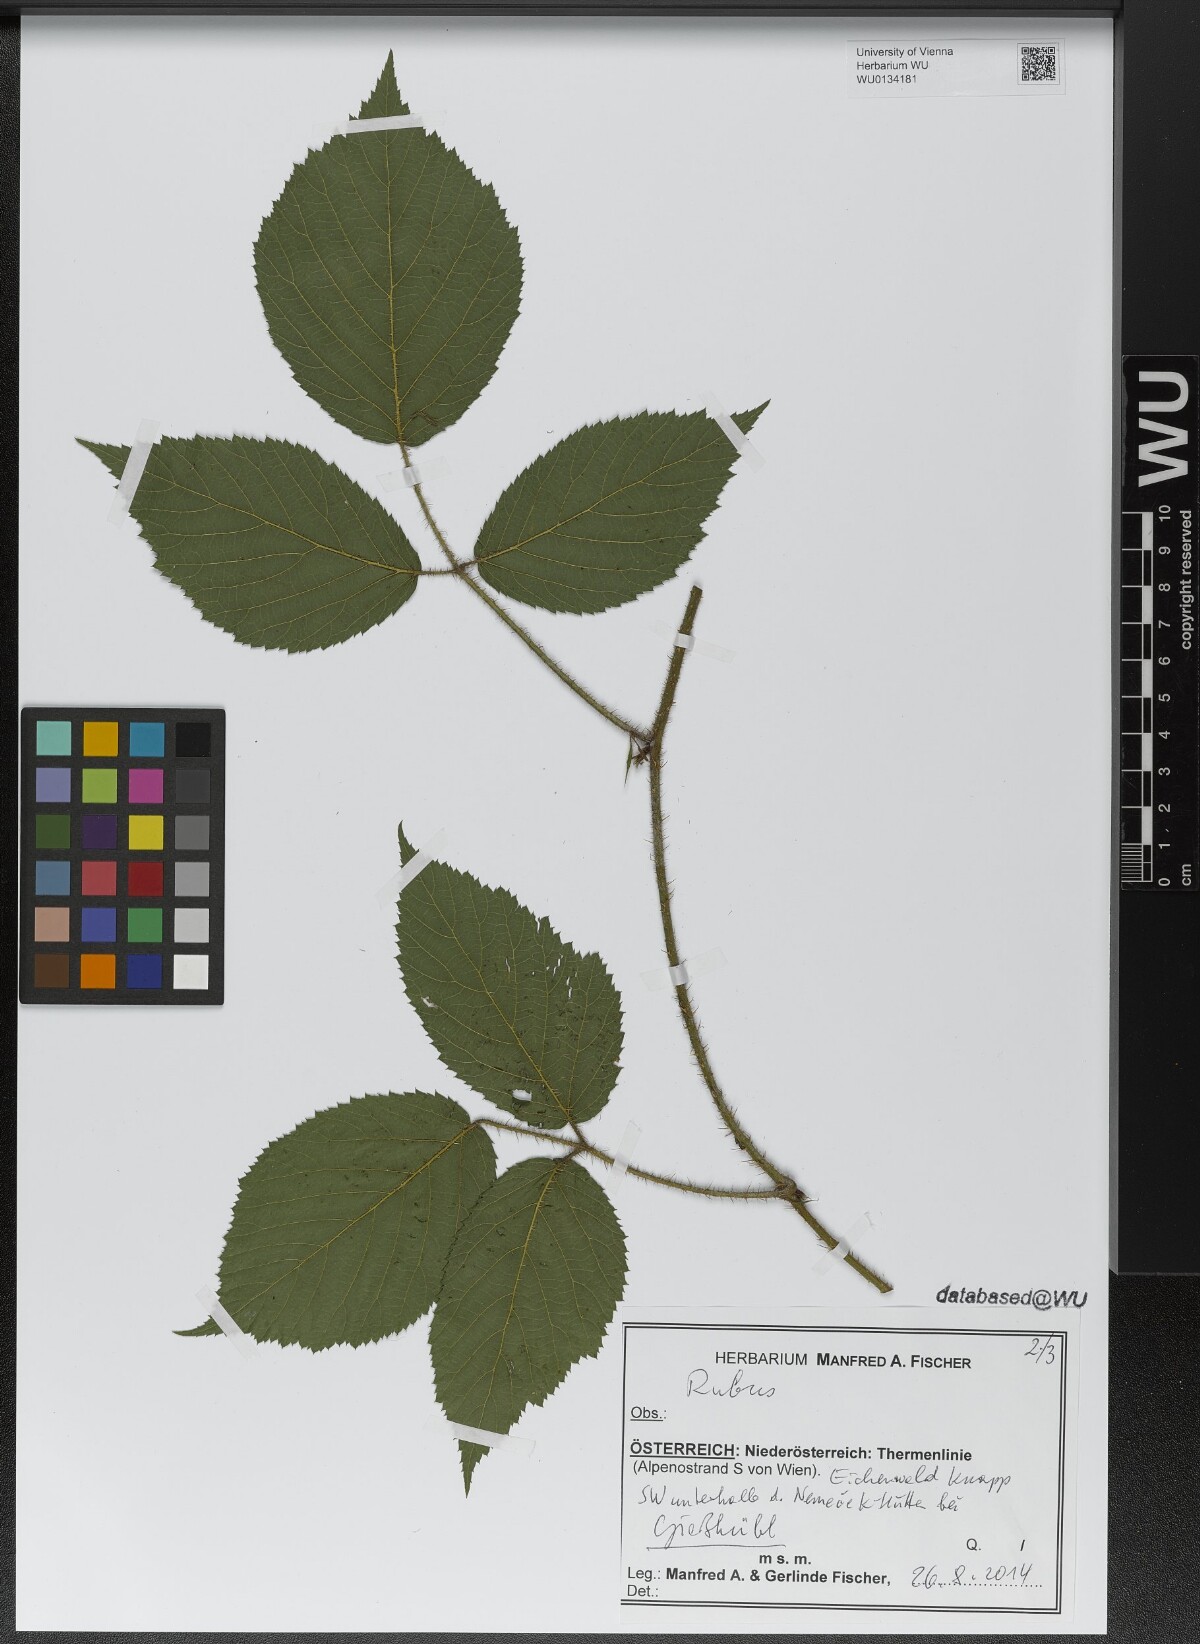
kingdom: Plantae
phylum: Tracheophyta
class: Magnoliopsida
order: Rosales
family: Rosaceae
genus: Rubus
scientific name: Rubus
